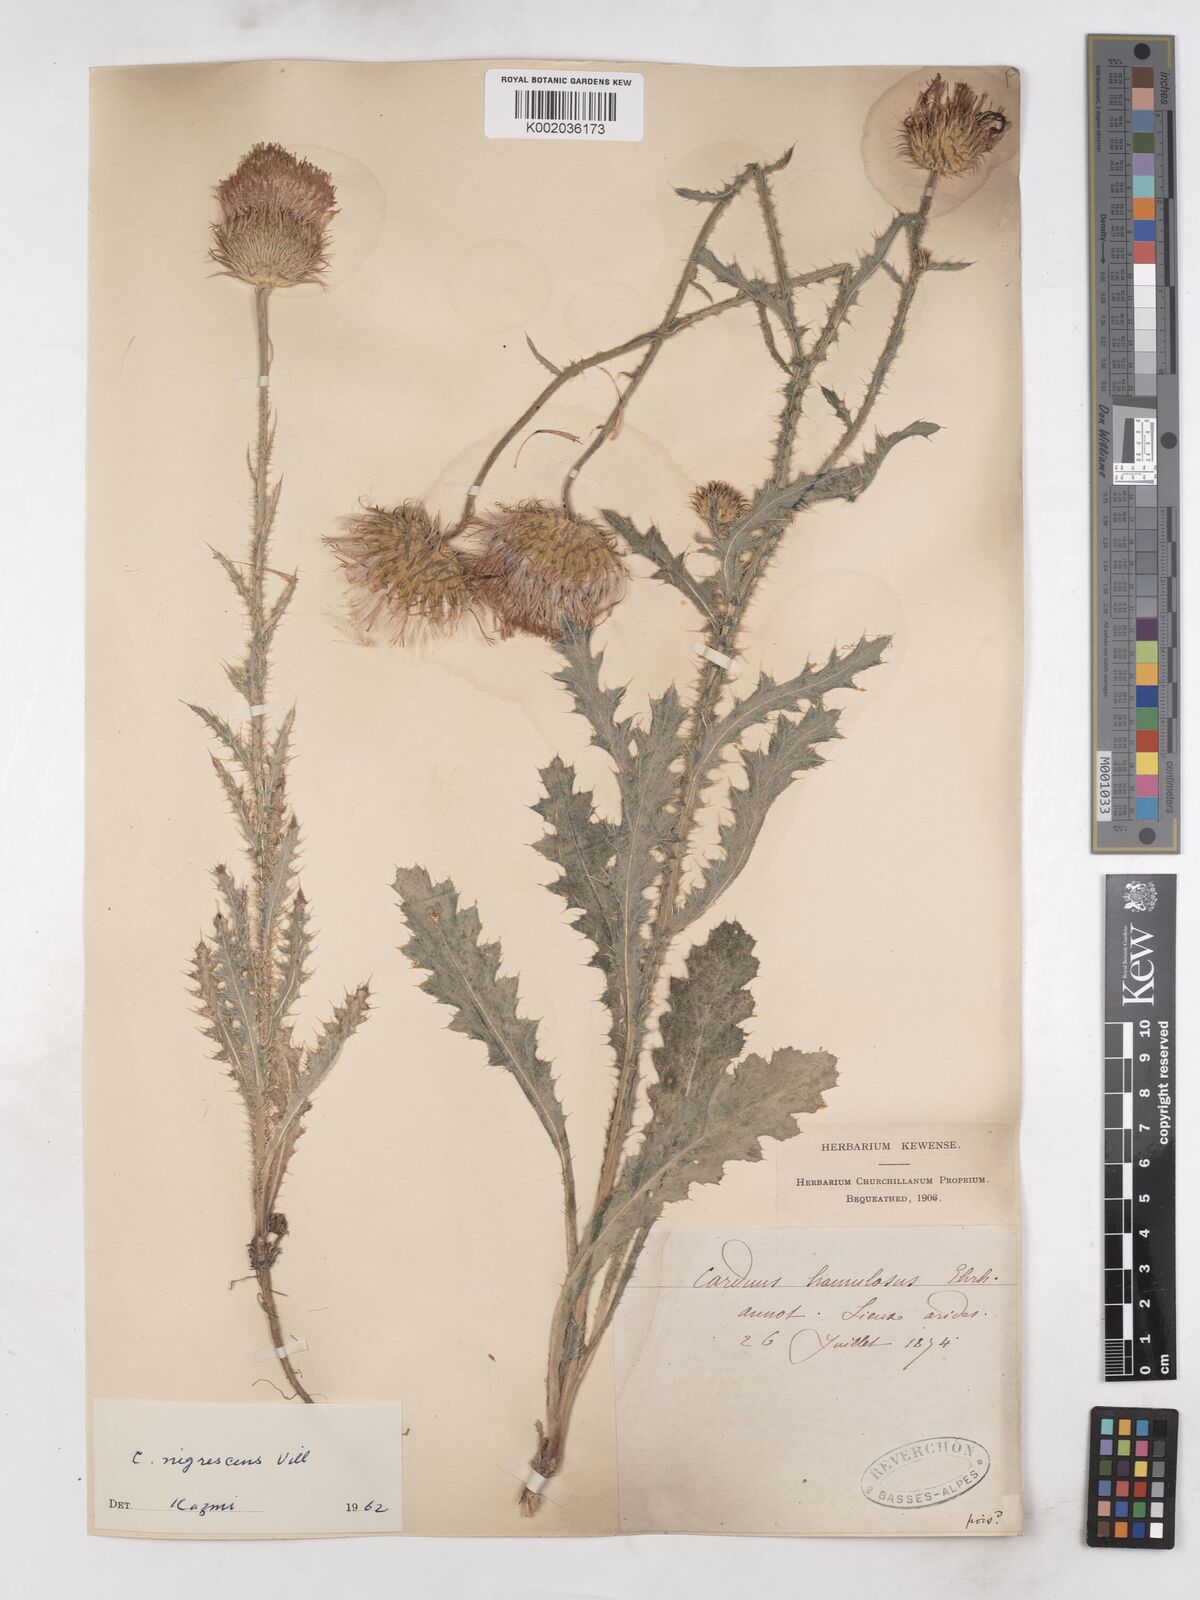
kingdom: Plantae
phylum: Tracheophyta
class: Magnoliopsida
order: Asterales
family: Asteraceae
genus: Carduus
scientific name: Carduus nigrescens
